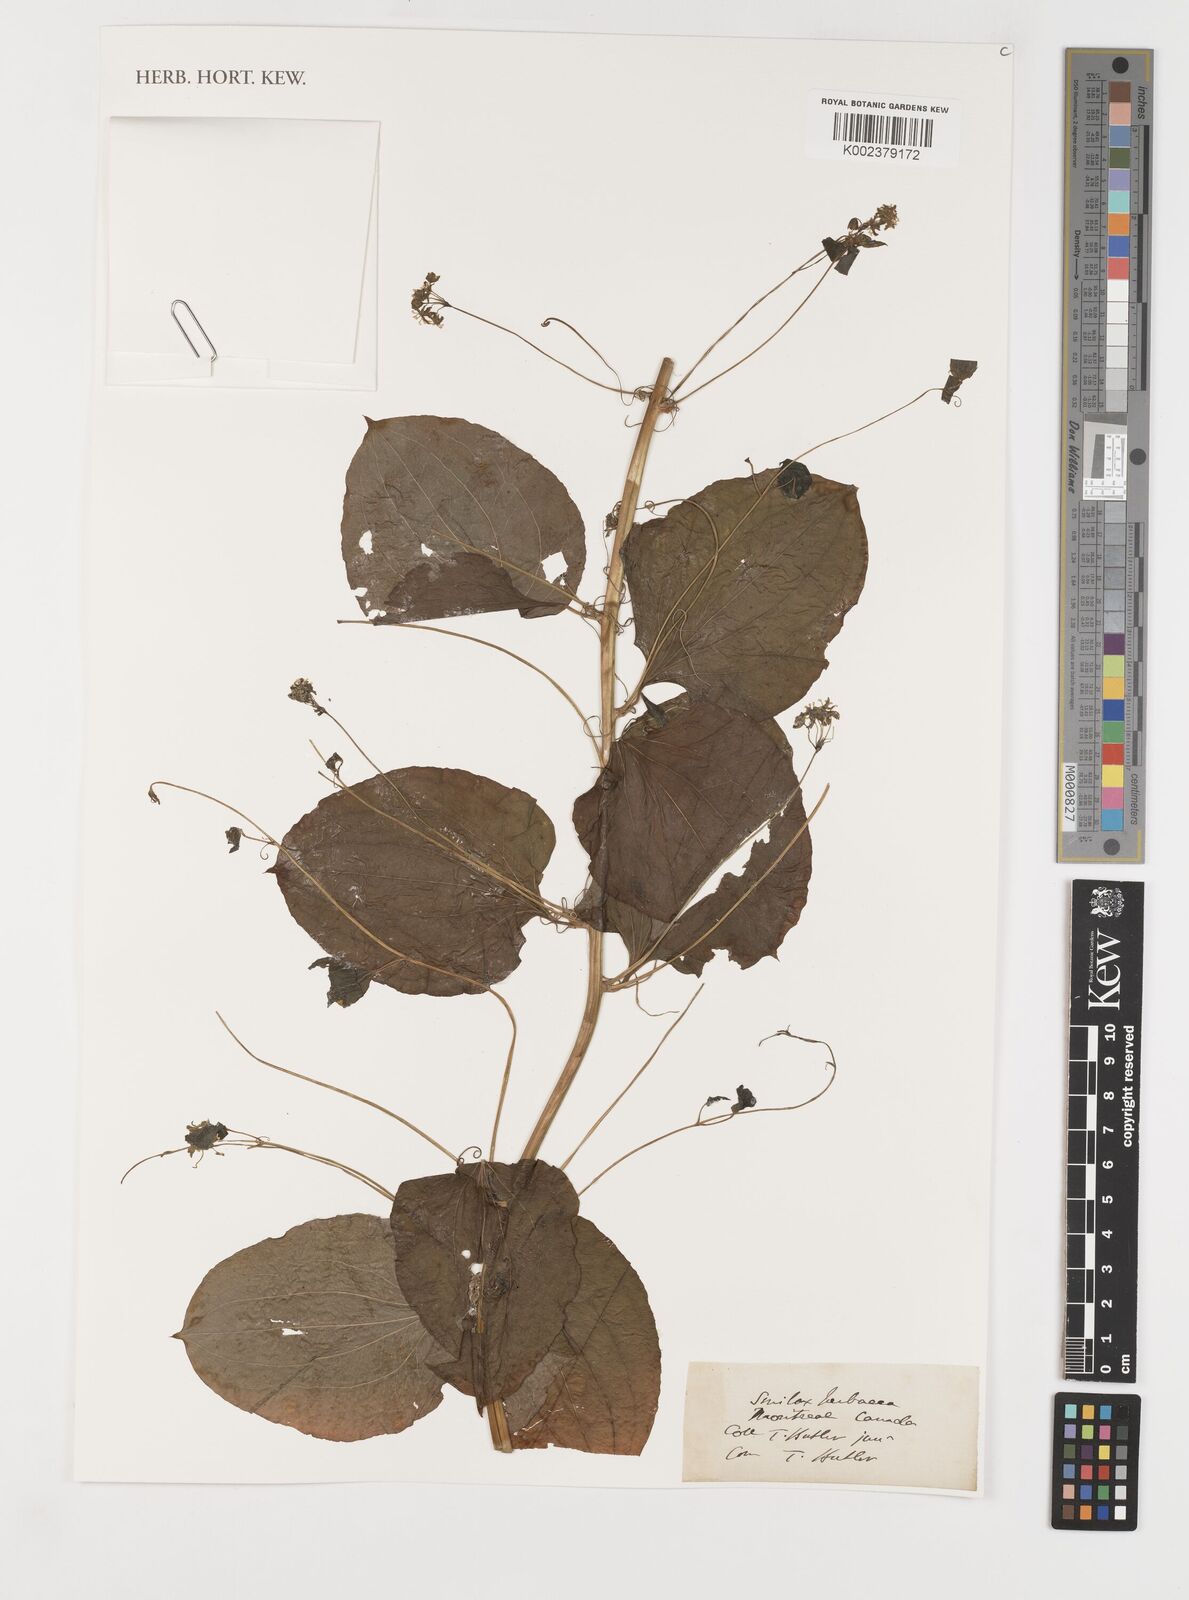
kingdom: Plantae
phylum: Tracheophyta
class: Liliopsida
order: Liliales
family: Smilacaceae
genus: Smilax
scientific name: Smilax herbacea
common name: Jacob's-ladder
